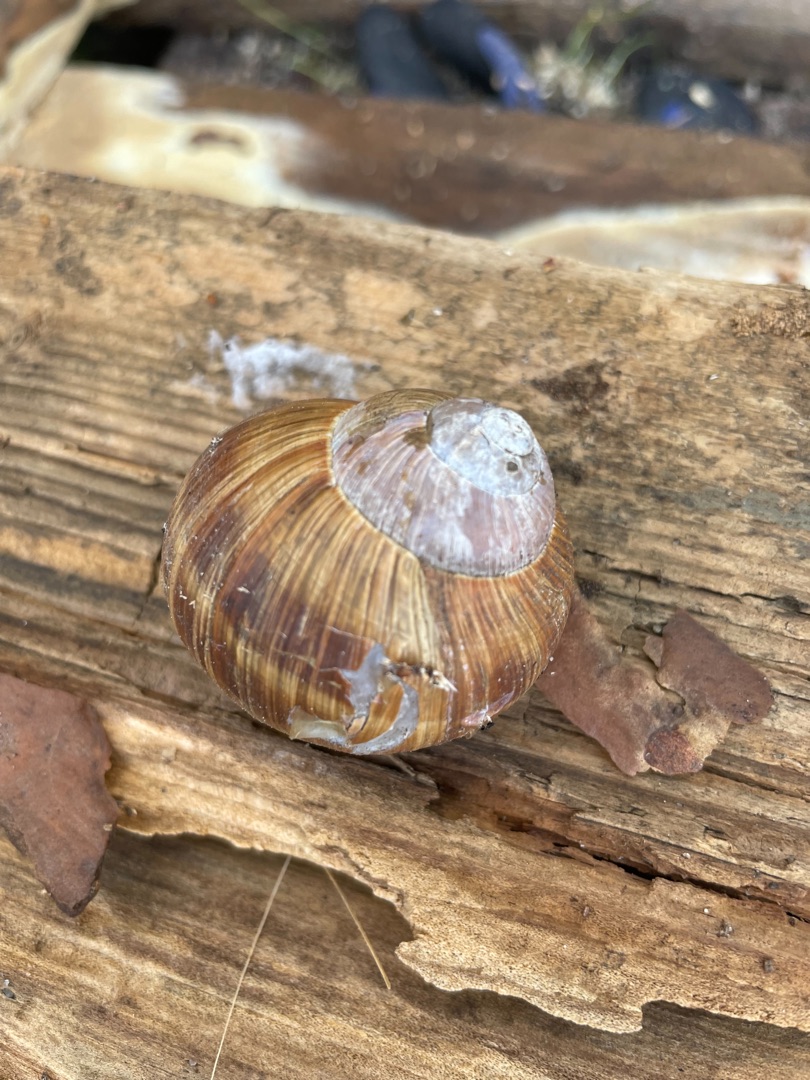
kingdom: Animalia
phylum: Mollusca
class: Gastropoda
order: Stylommatophora
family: Helicidae
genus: Helix
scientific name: Helix pomatia
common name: Vinbjergsnegl
